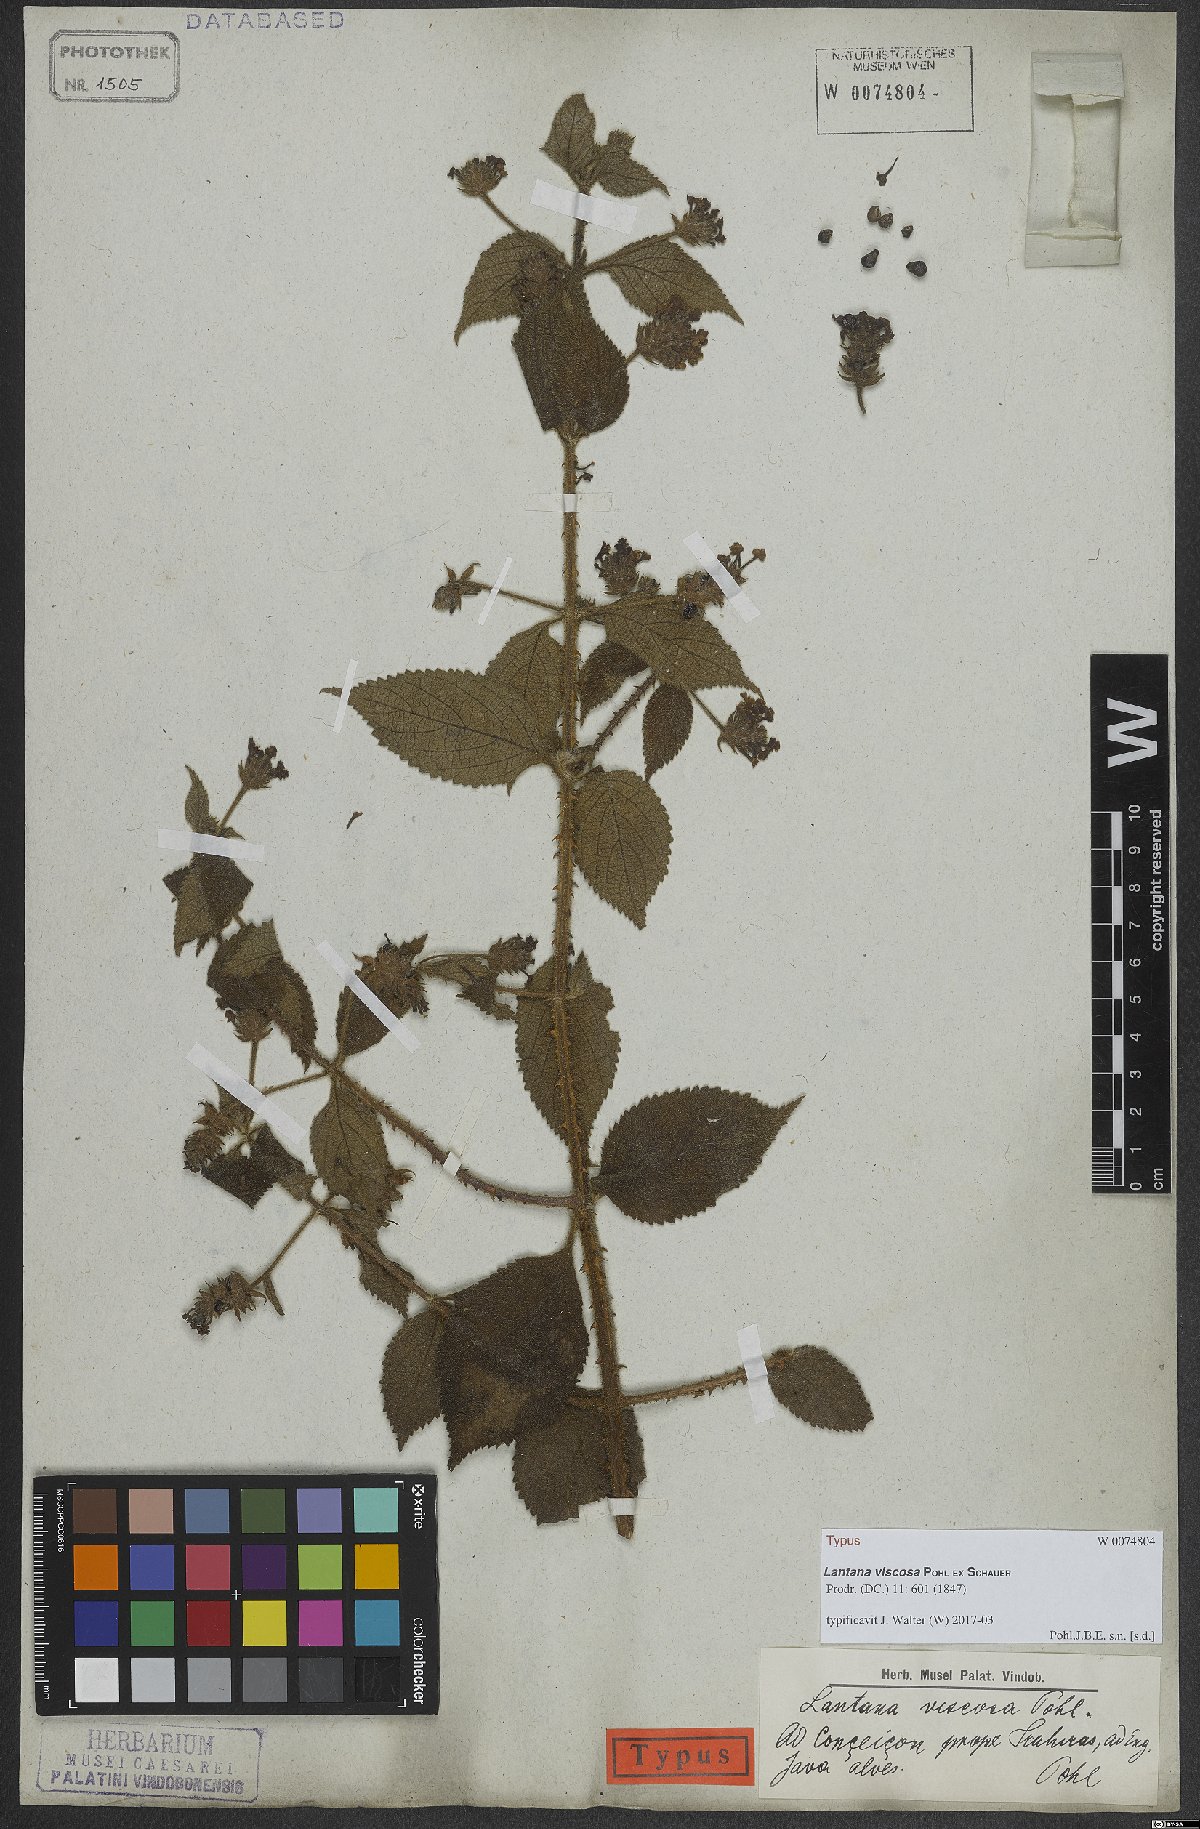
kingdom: Plantae
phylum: Tracheophyta
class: Magnoliopsida
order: Lamiales
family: Verbenaceae
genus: Lantana
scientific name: Lantana viscosa
